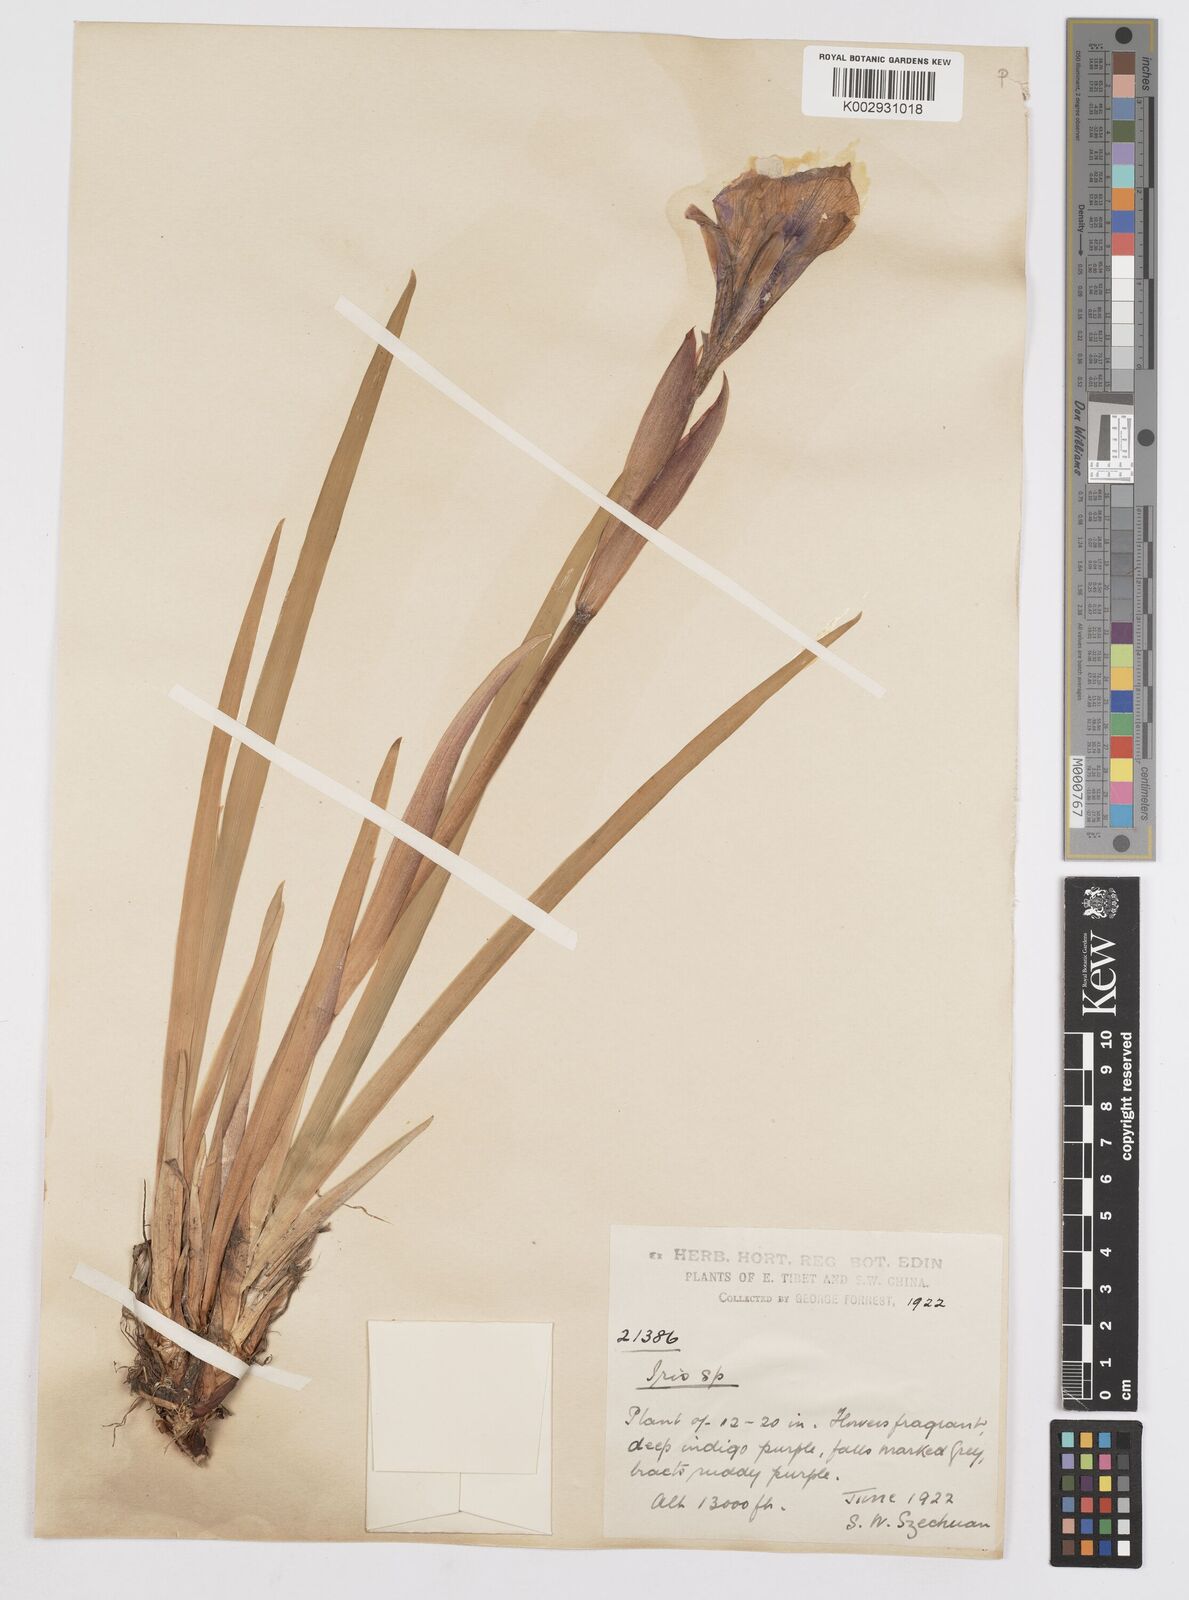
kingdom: Plantae
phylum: Tracheophyta
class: Liliopsida
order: Asparagales
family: Iridaceae
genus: Iris
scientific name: Iris
